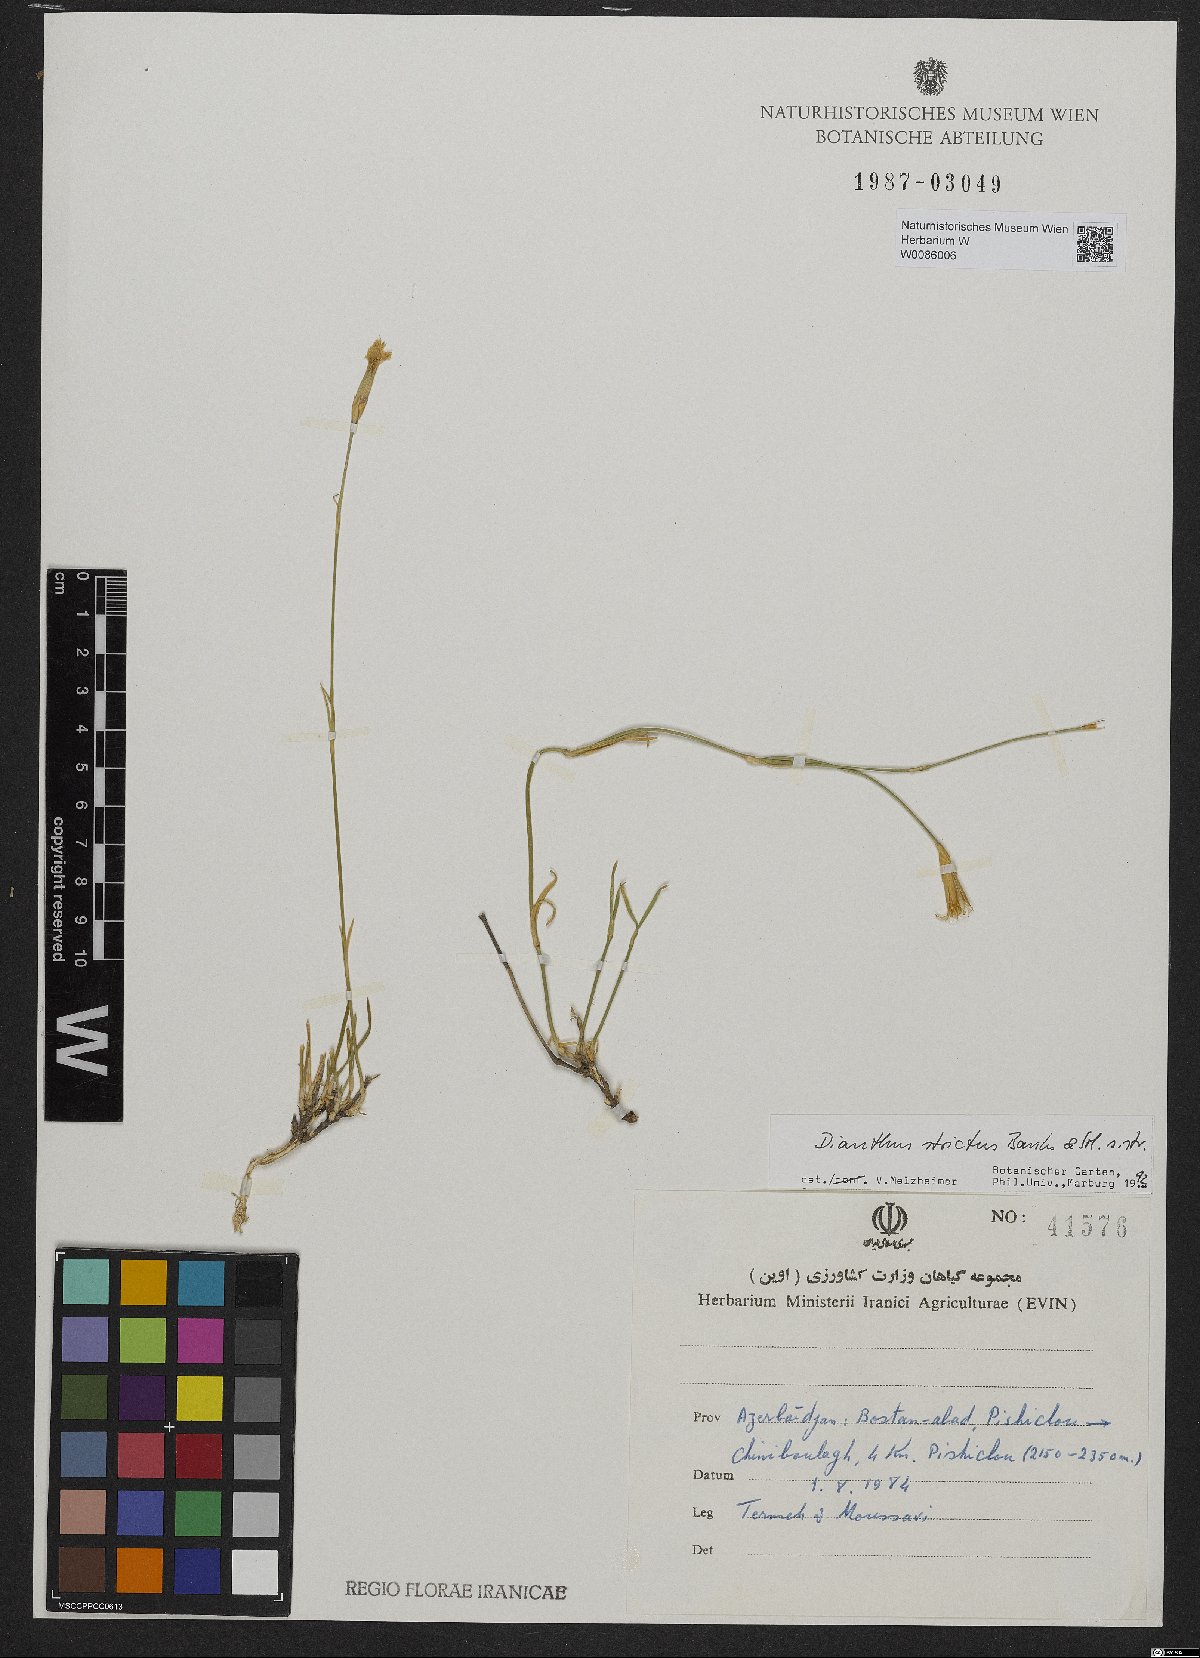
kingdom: Plantae
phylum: Tracheophyta
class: Magnoliopsida
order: Caryophyllales
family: Caryophyllaceae
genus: Dianthus
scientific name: Dianthus strictus
